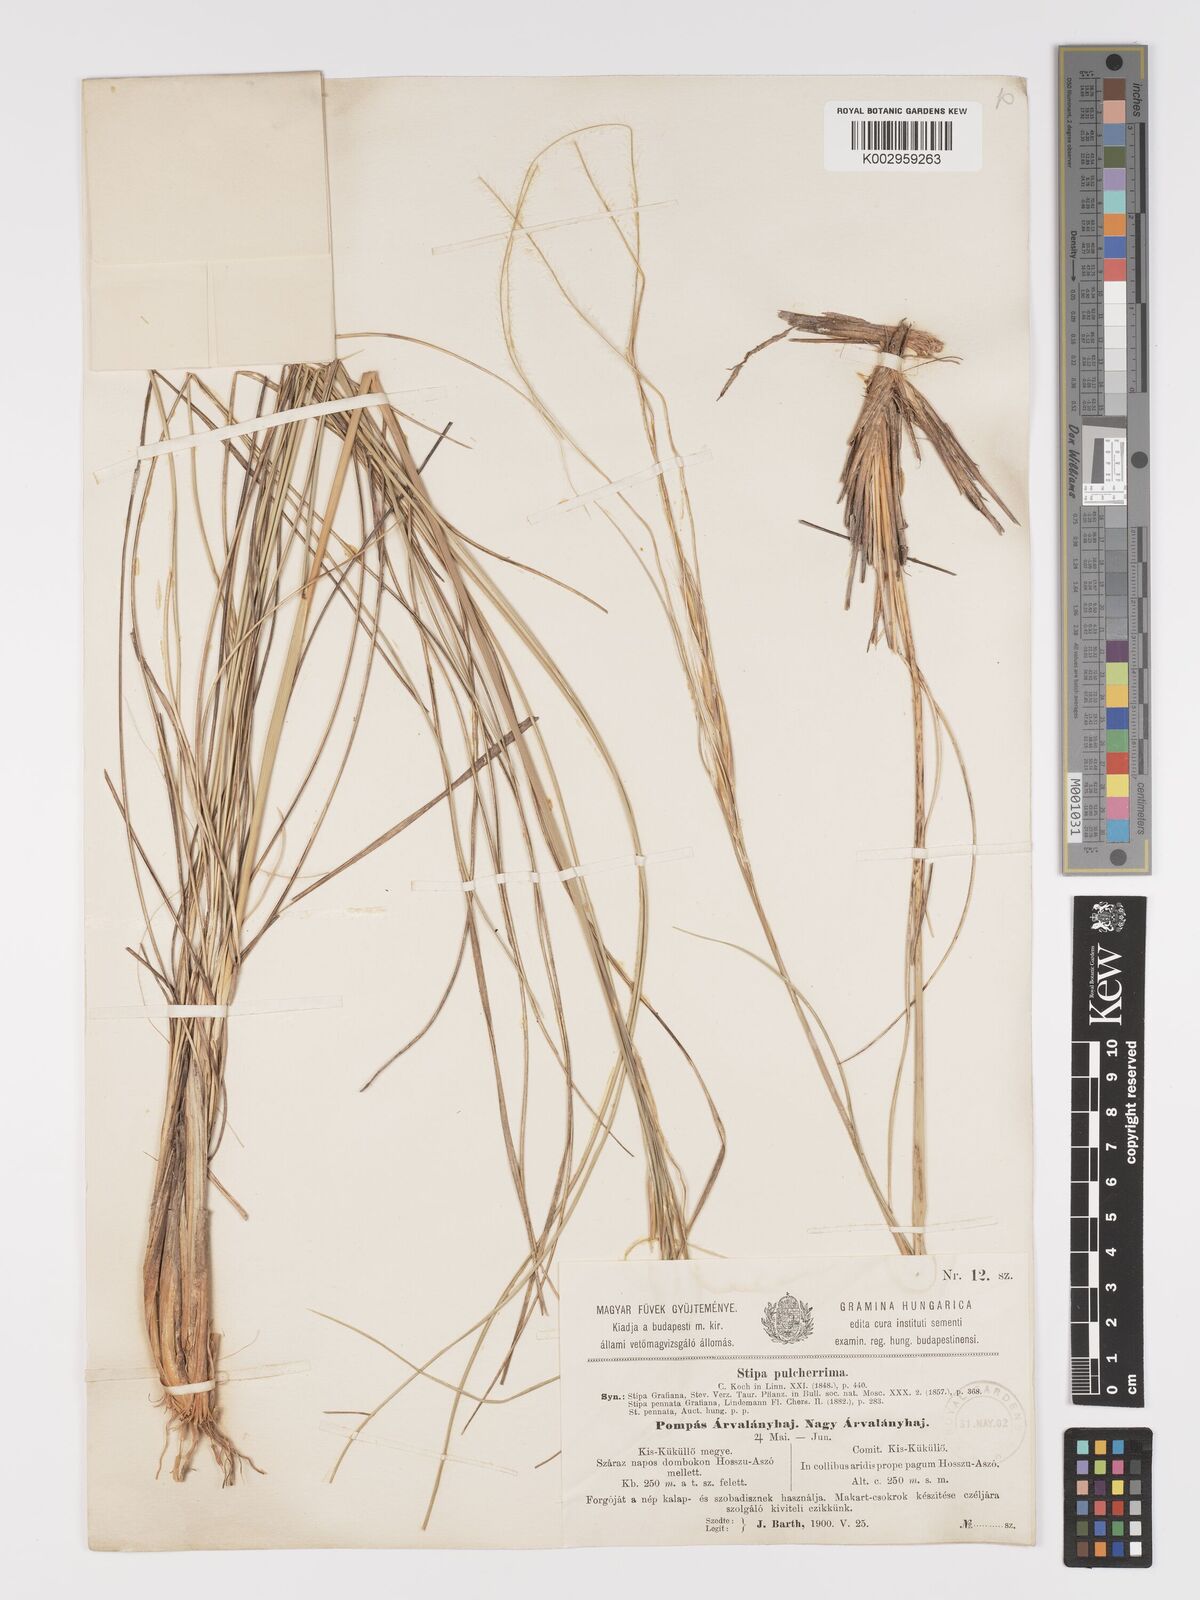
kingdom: Plantae
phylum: Tracheophyta
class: Liliopsida
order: Poales
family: Poaceae
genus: Stipa
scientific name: Stipa pulcherrima
